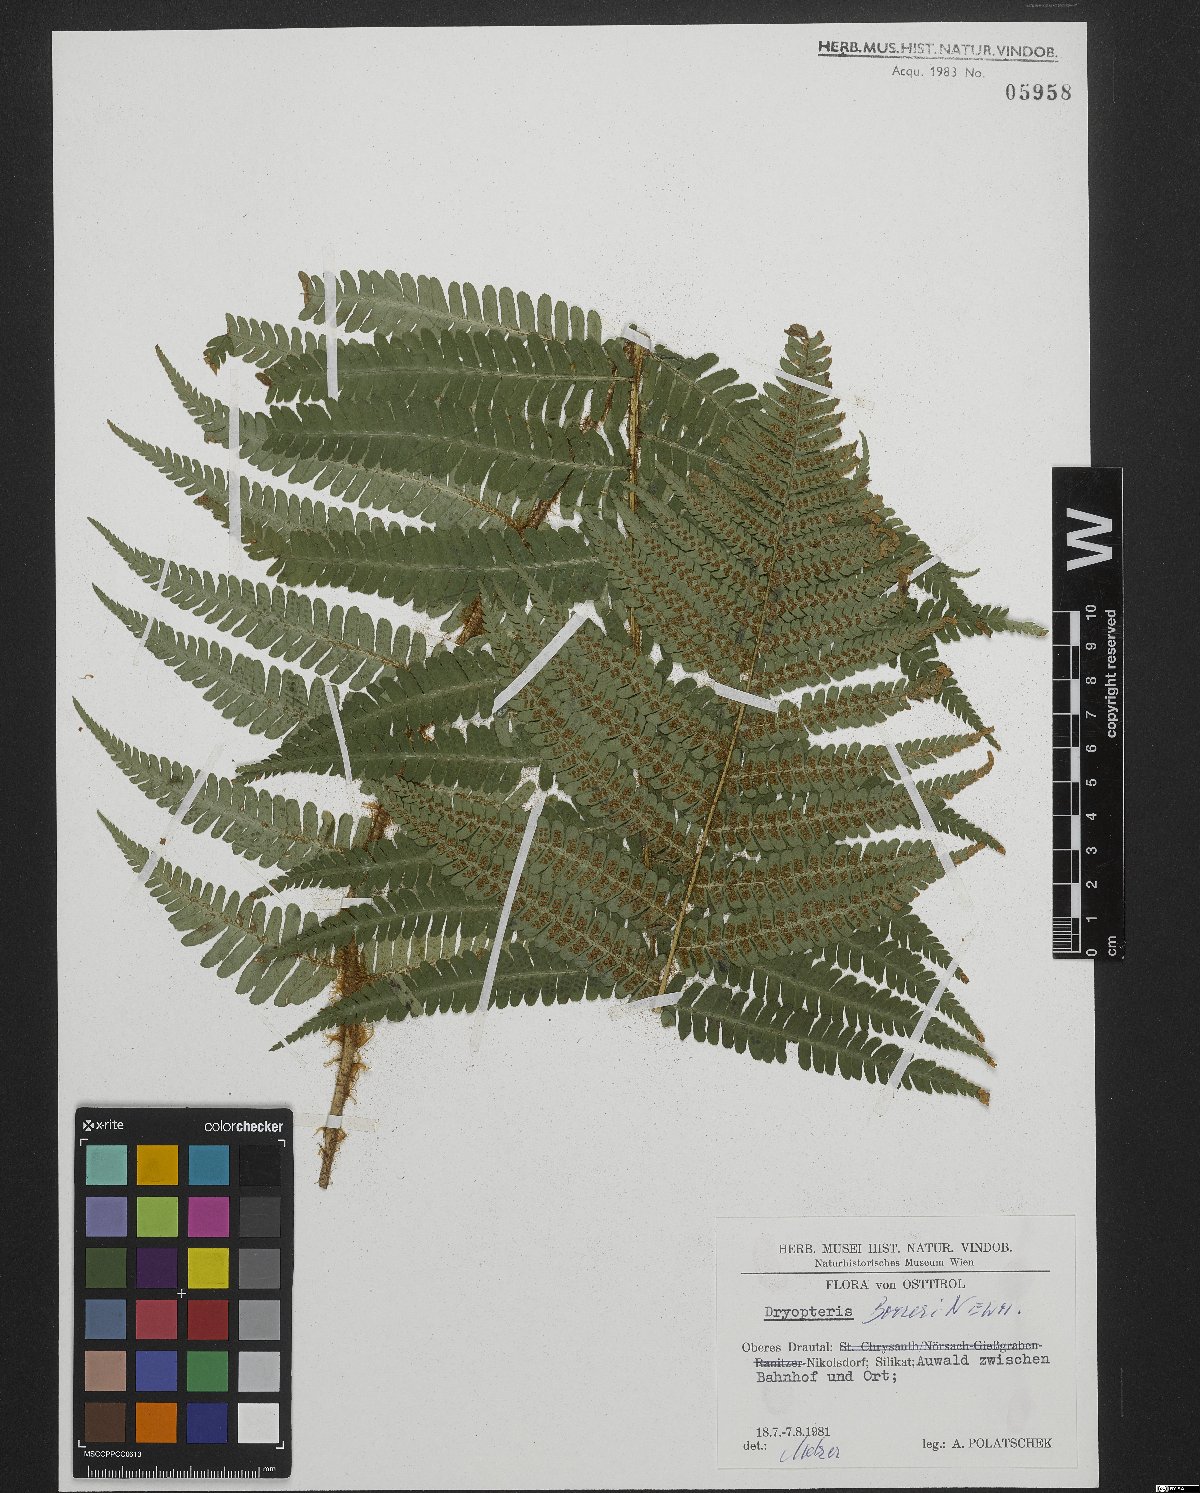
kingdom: Plantae
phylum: Tracheophyta
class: Polypodiopsida
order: Polypodiales
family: Dryopteridaceae
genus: Dryopteris
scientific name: Dryopteris borreri
